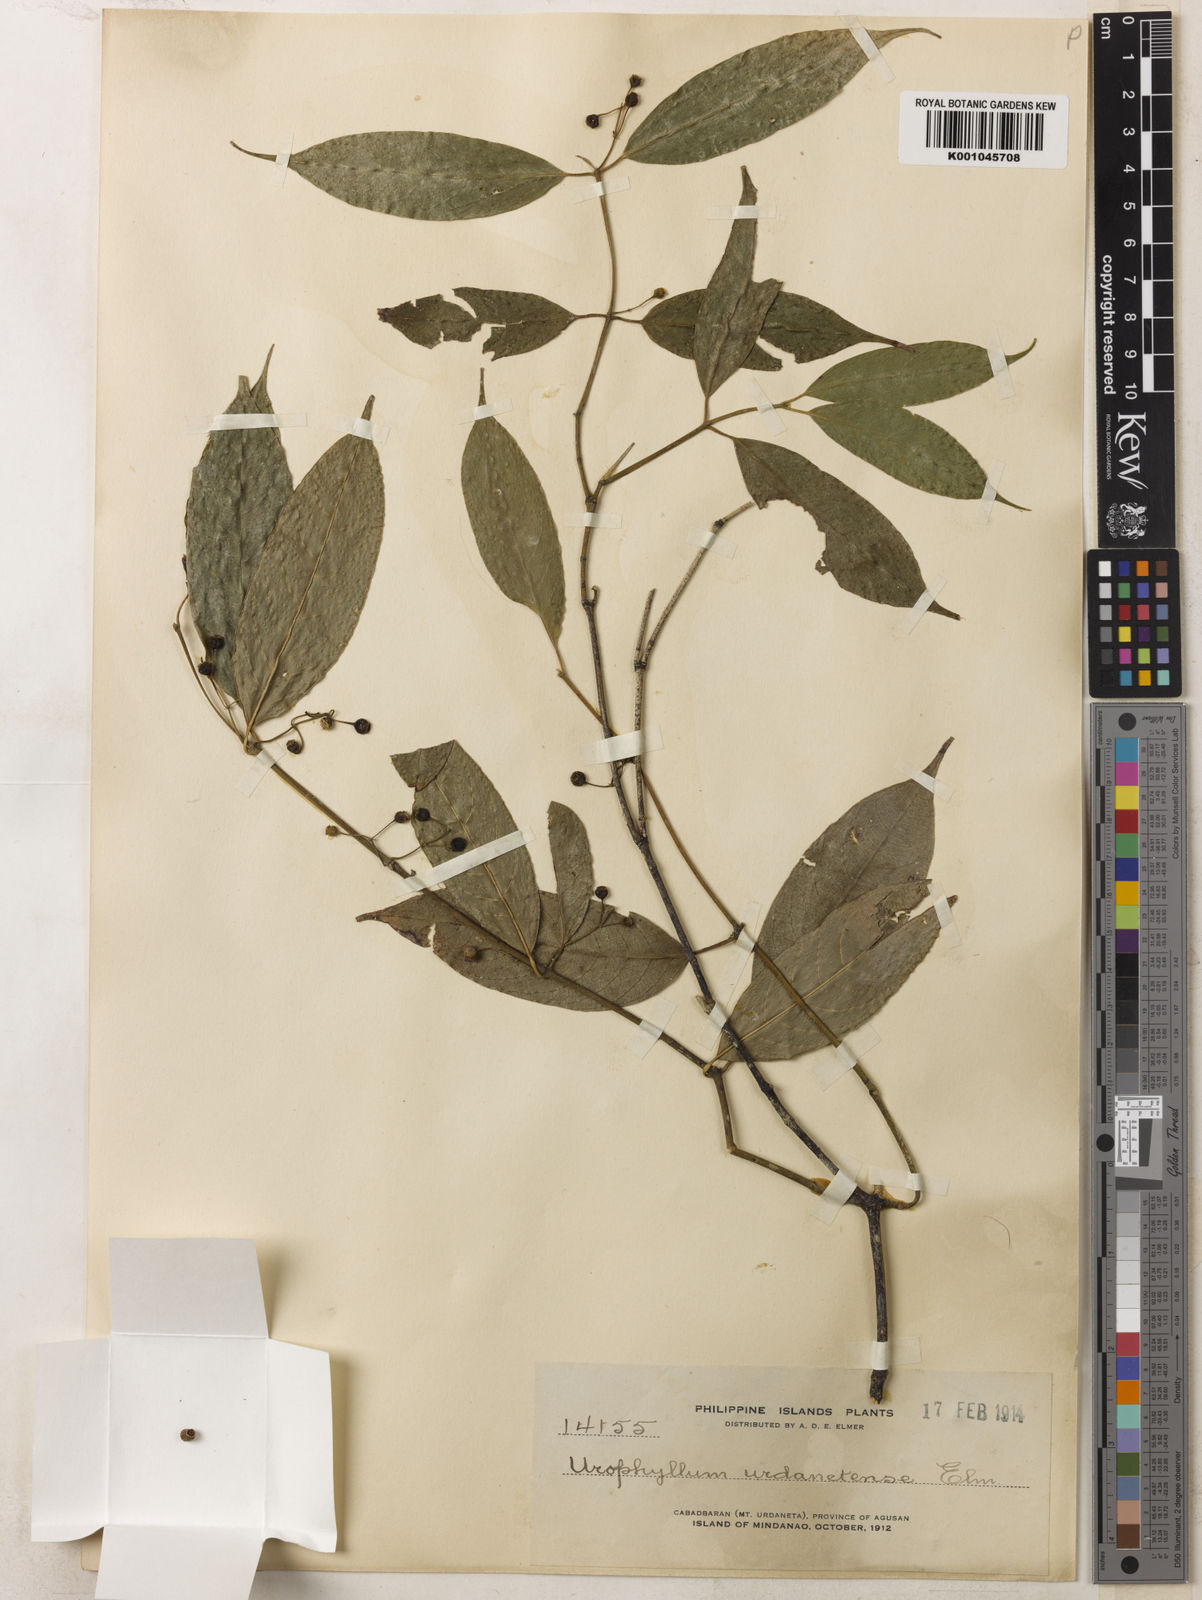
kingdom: Plantae
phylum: Tracheophyta
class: Magnoliopsida
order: Gentianales
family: Rubiaceae
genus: Urophyllum
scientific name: Urophyllum urdanetense
